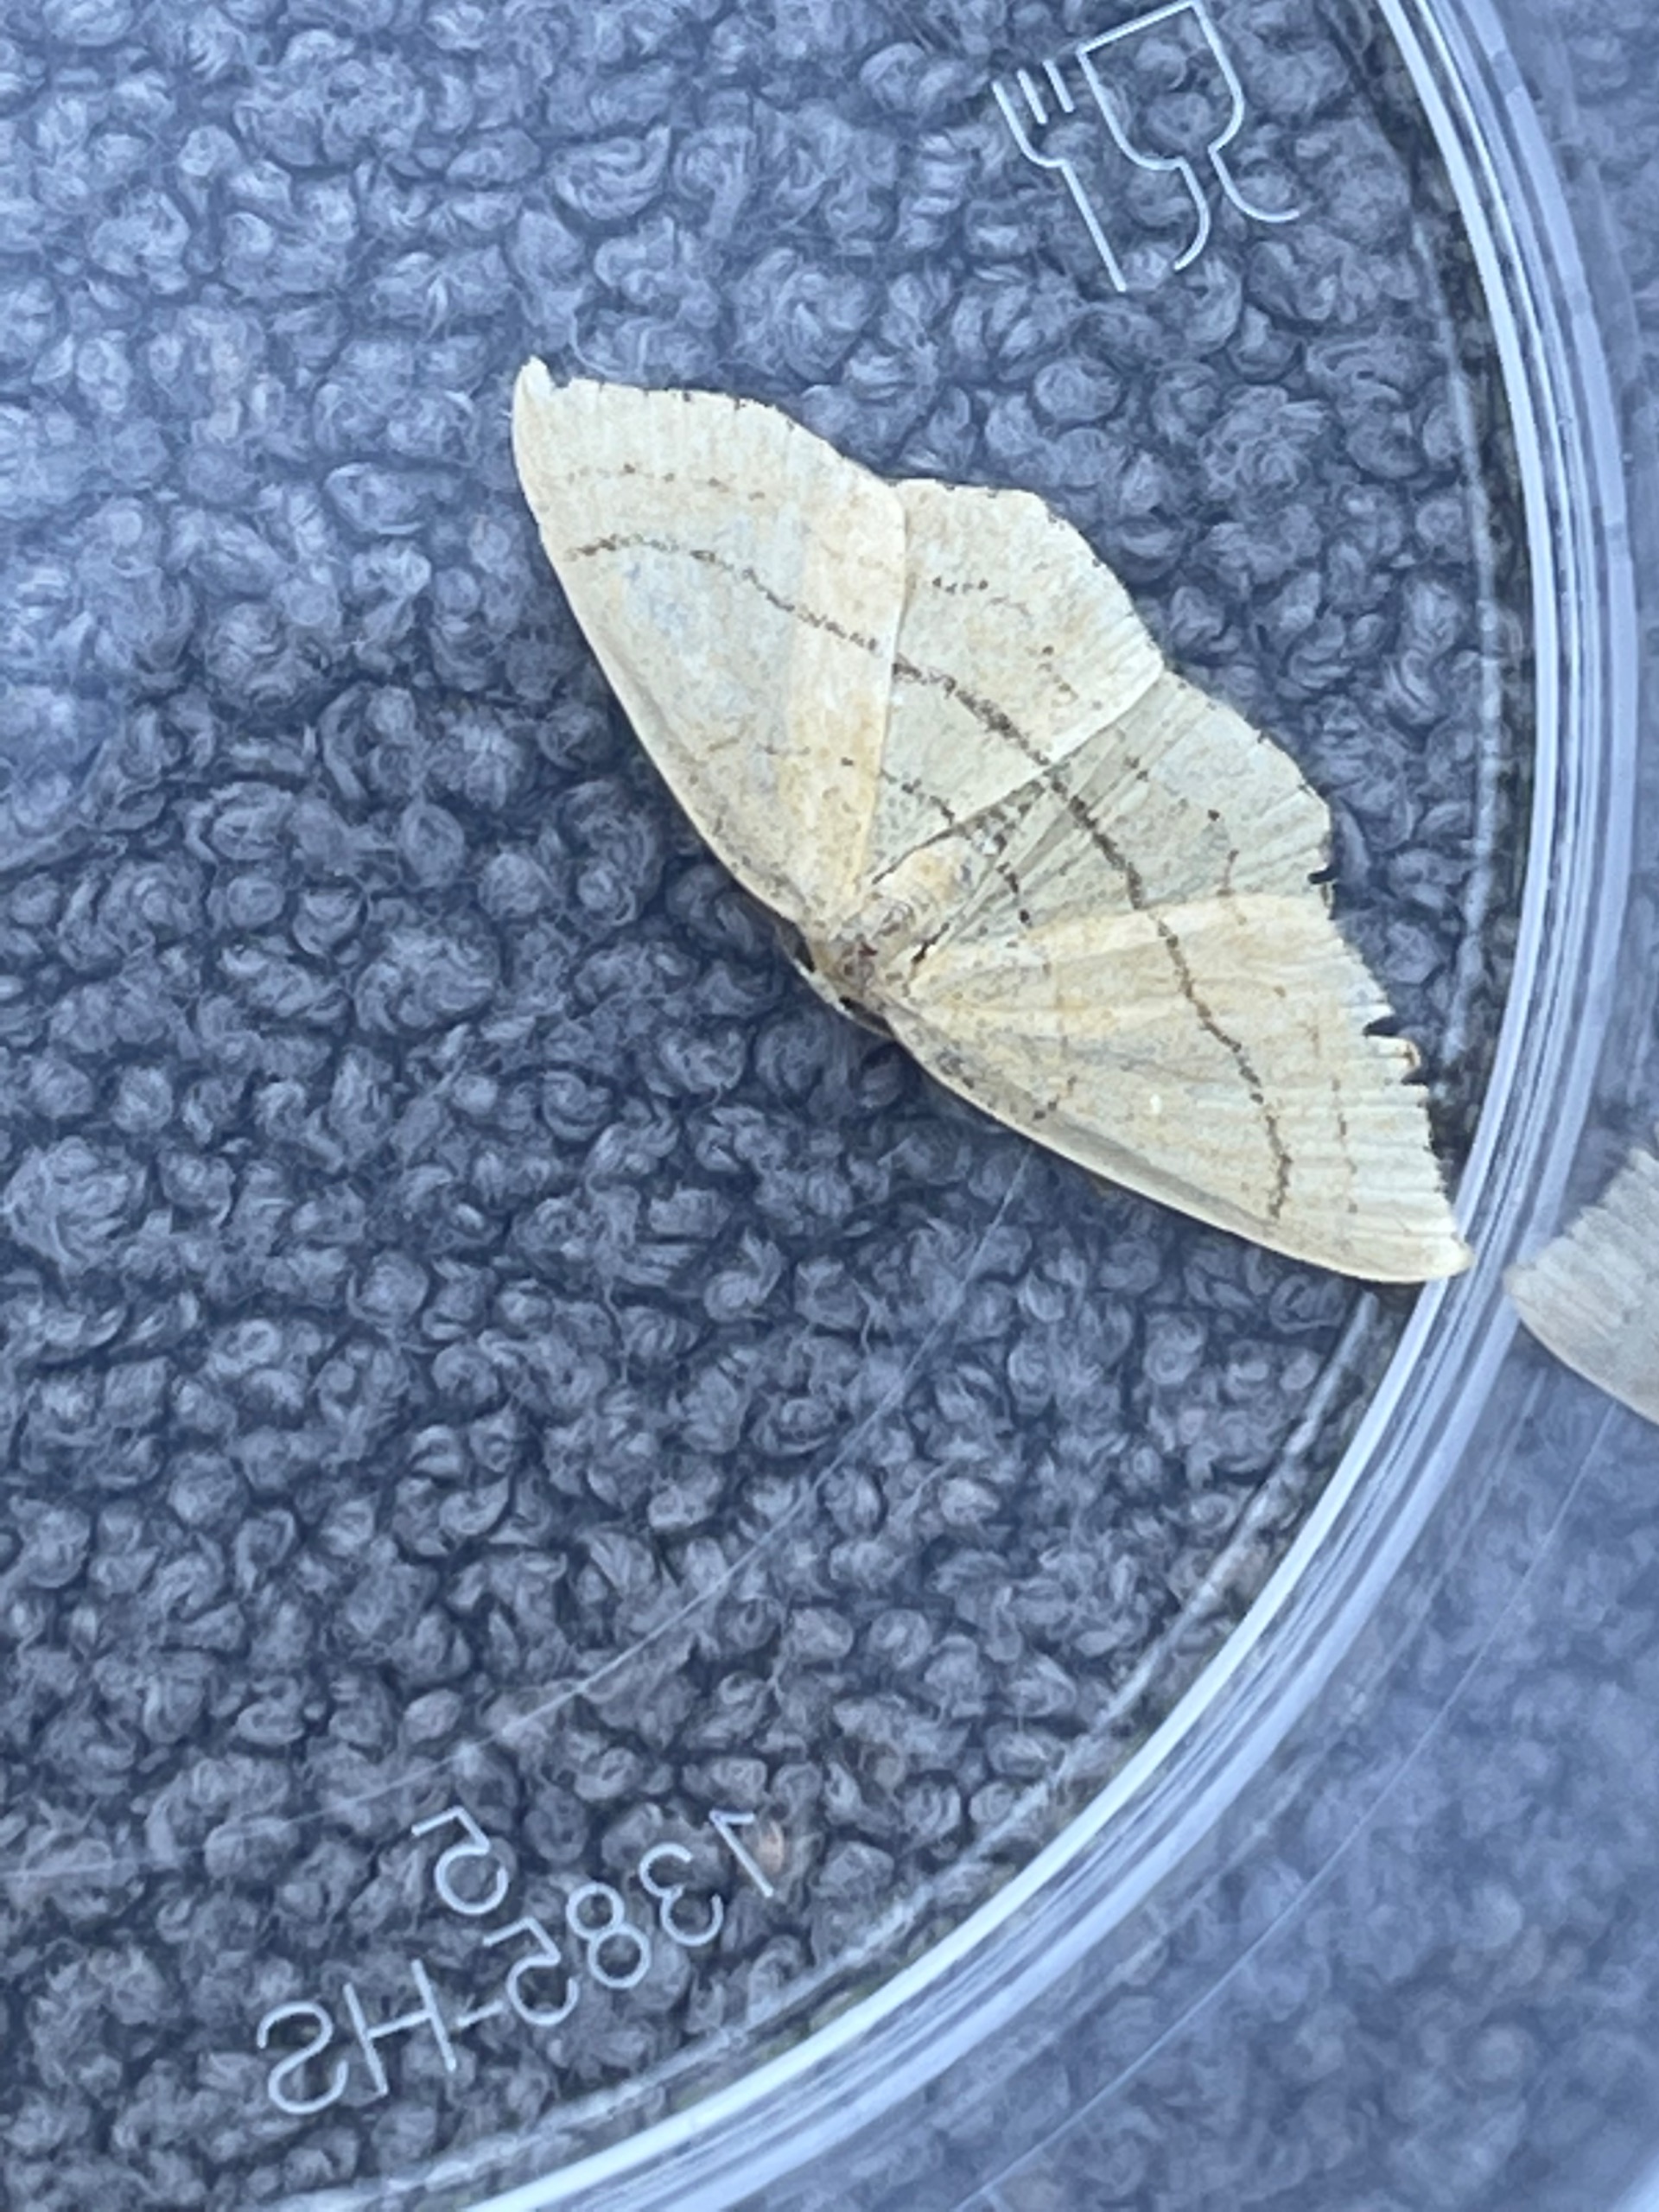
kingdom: Animalia
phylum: Arthropoda
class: Insecta
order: Lepidoptera
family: Geometridae
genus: Cyclophora
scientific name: Cyclophora linearia
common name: Bøge-bæltemåler
